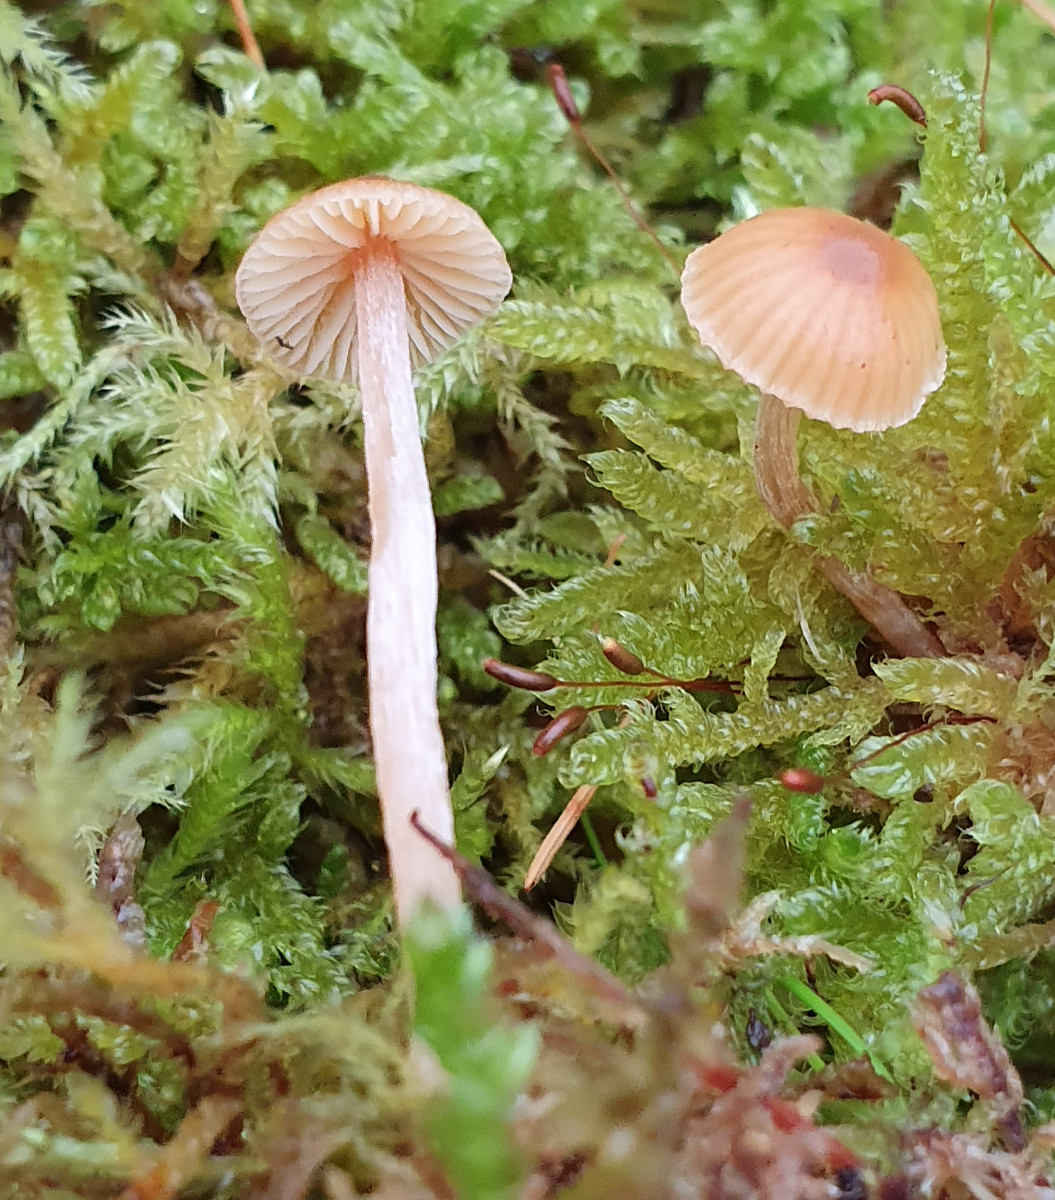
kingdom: Fungi
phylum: Basidiomycota
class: Agaricomycetes
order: Agaricales
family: Hymenogastraceae
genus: Galerina
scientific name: Galerina
